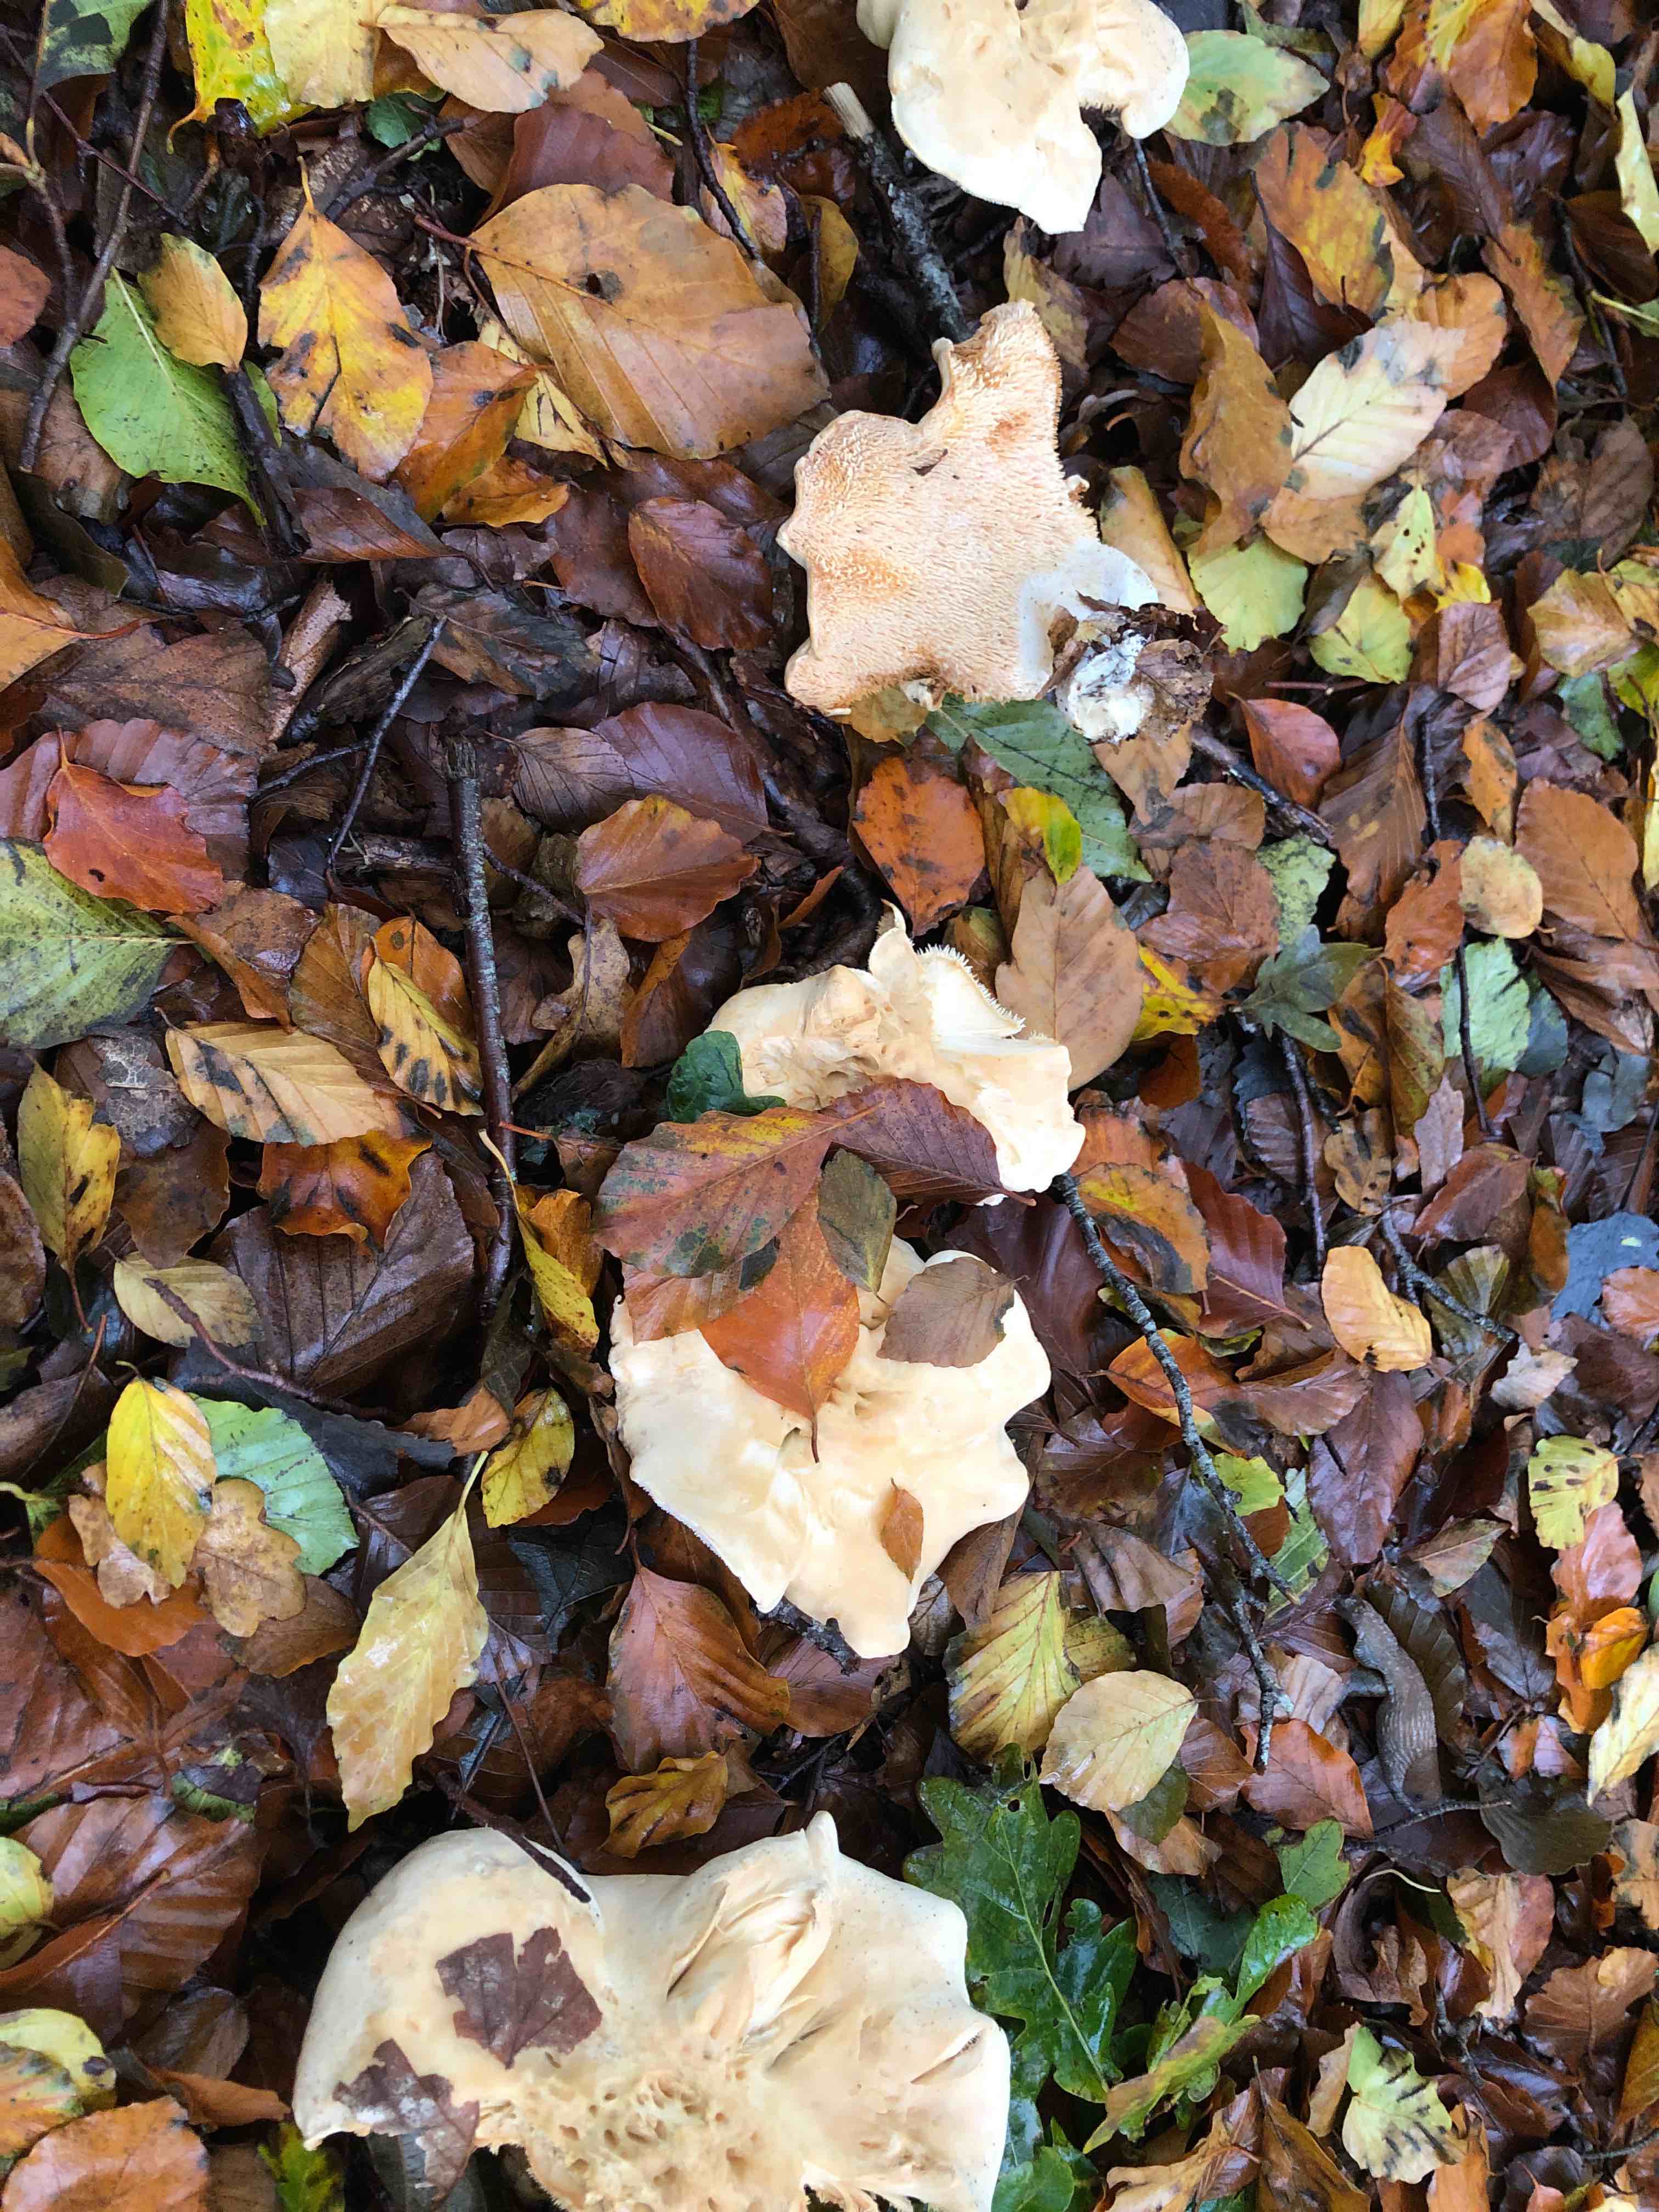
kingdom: Fungi
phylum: Basidiomycota
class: Agaricomycetes
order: Cantharellales
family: Hydnaceae
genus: Hydnum
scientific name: Hydnum repandum
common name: almindelig pigsvamp
